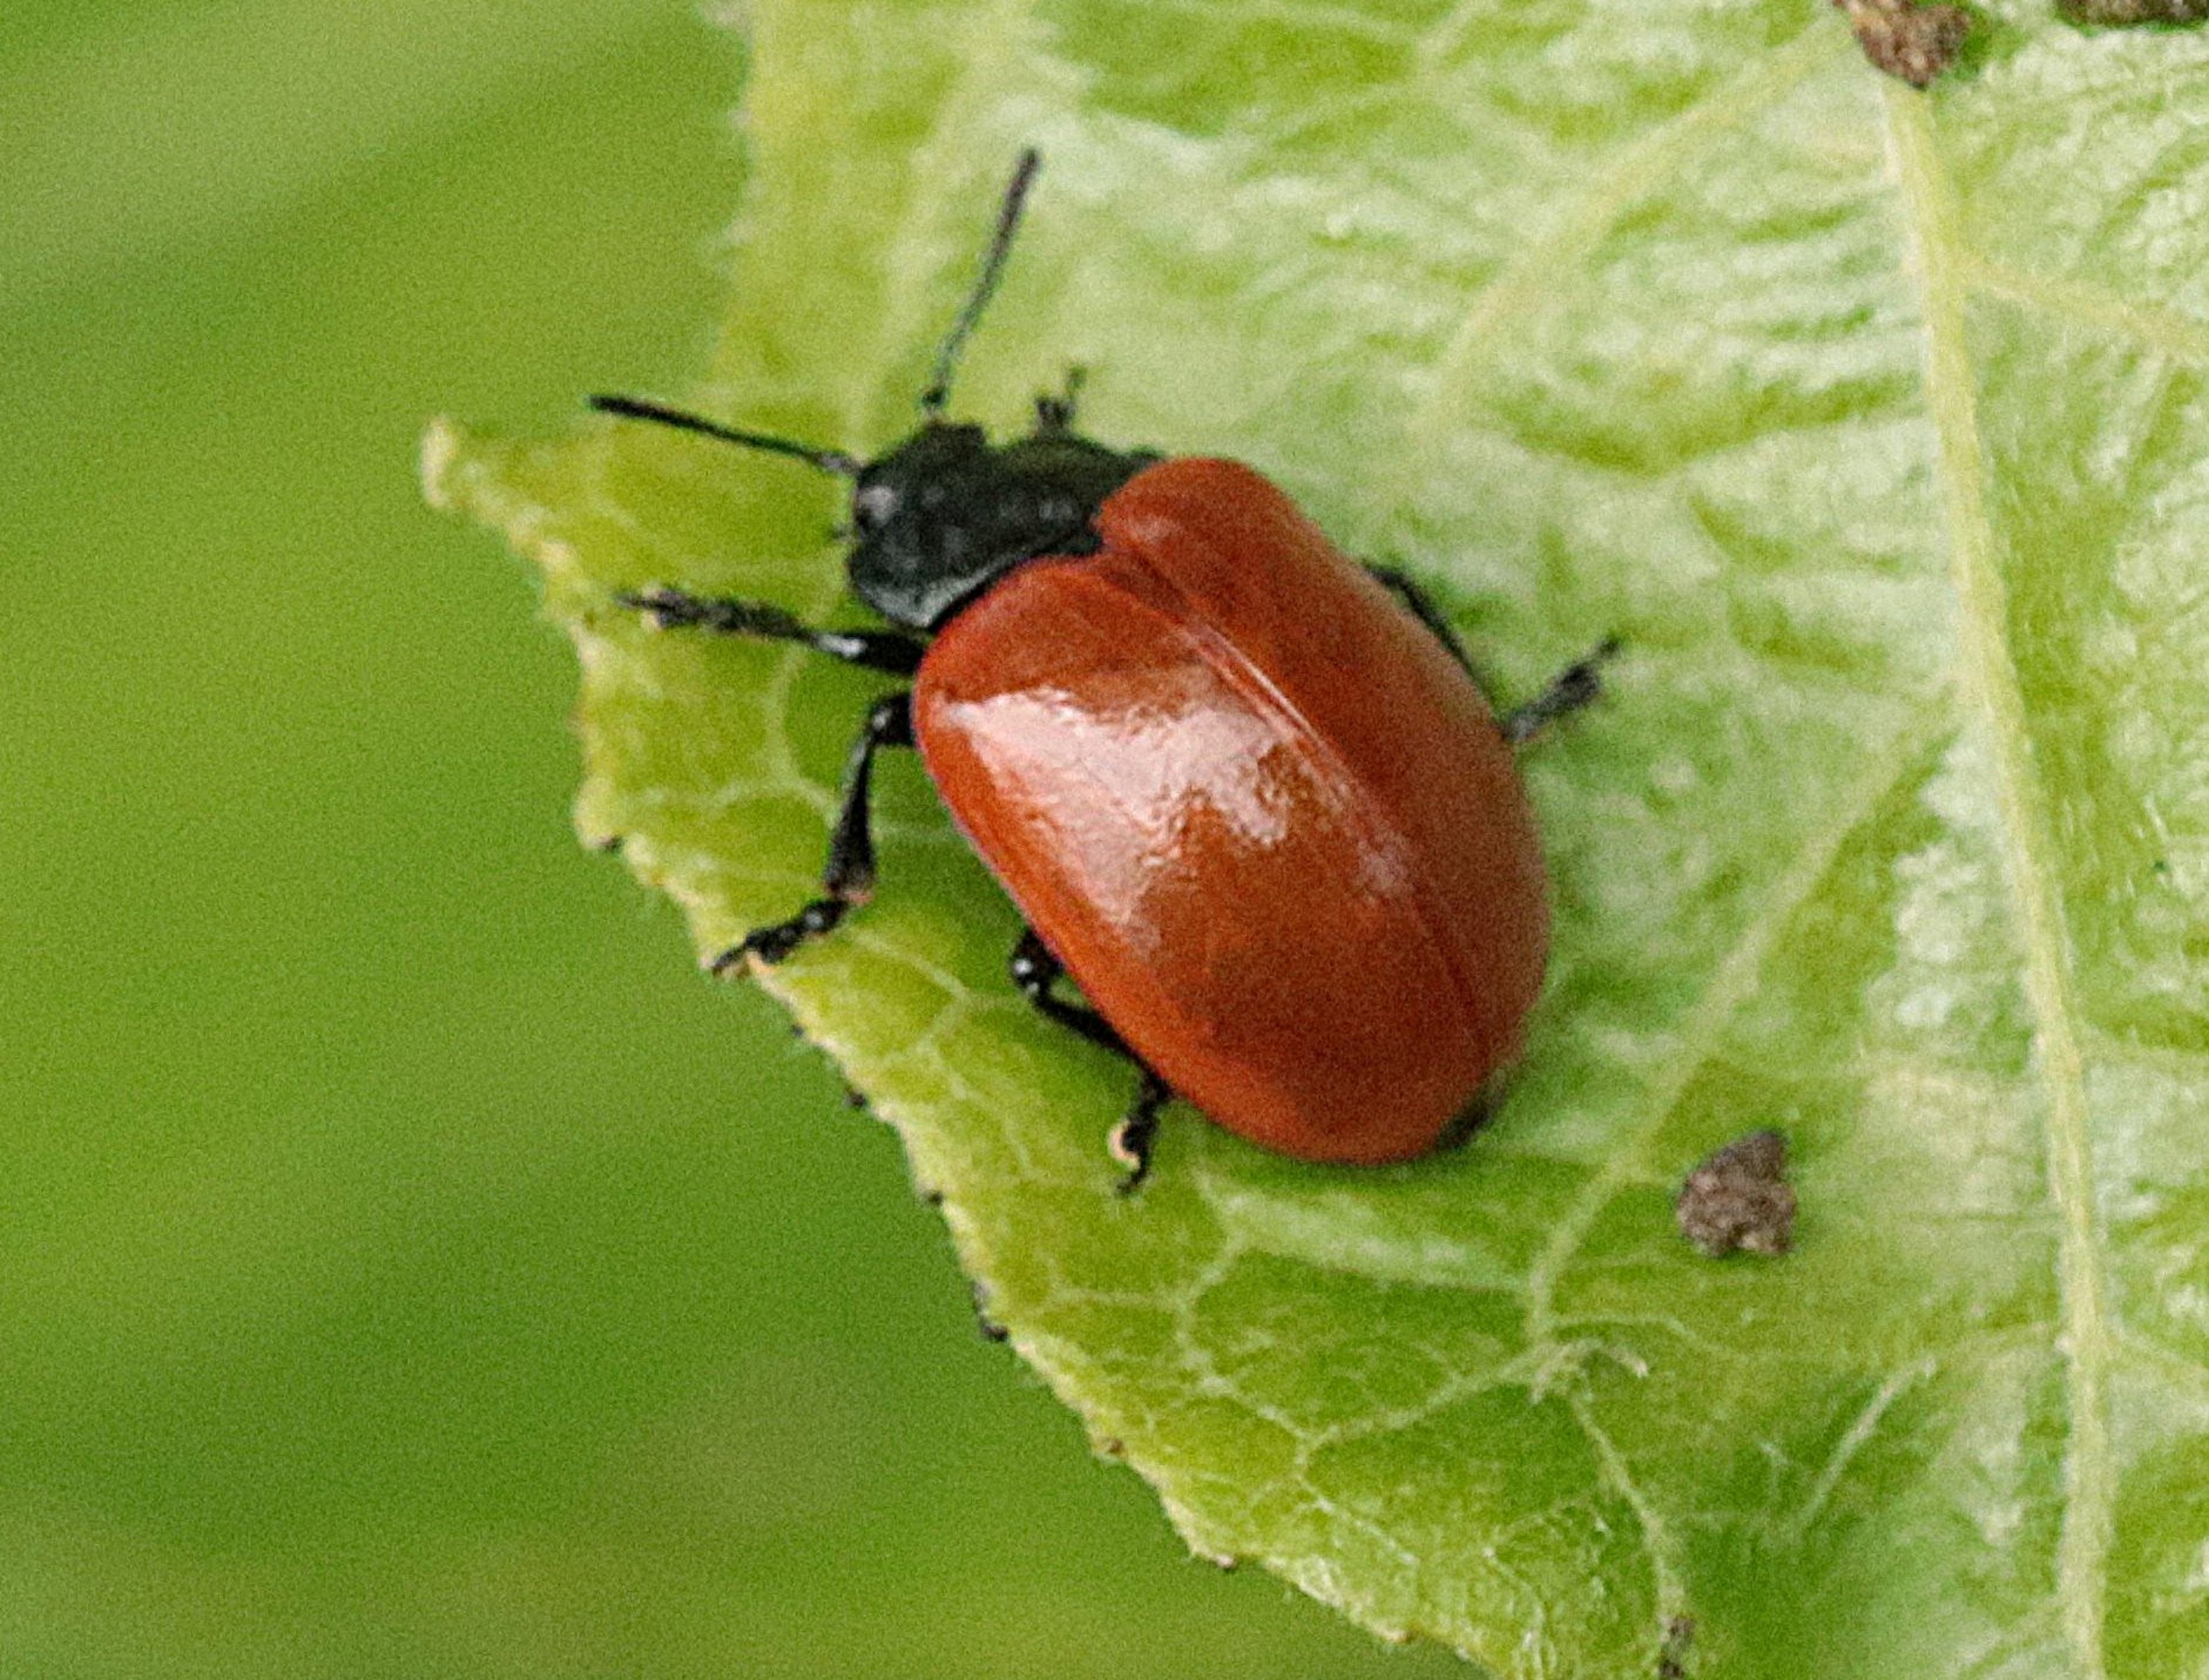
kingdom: Animalia
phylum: Arthropoda
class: Insecta
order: Coleoptera
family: Chrysomelidae
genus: Chrysomela
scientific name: Chrysomela populi
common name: Poppelbladbille
